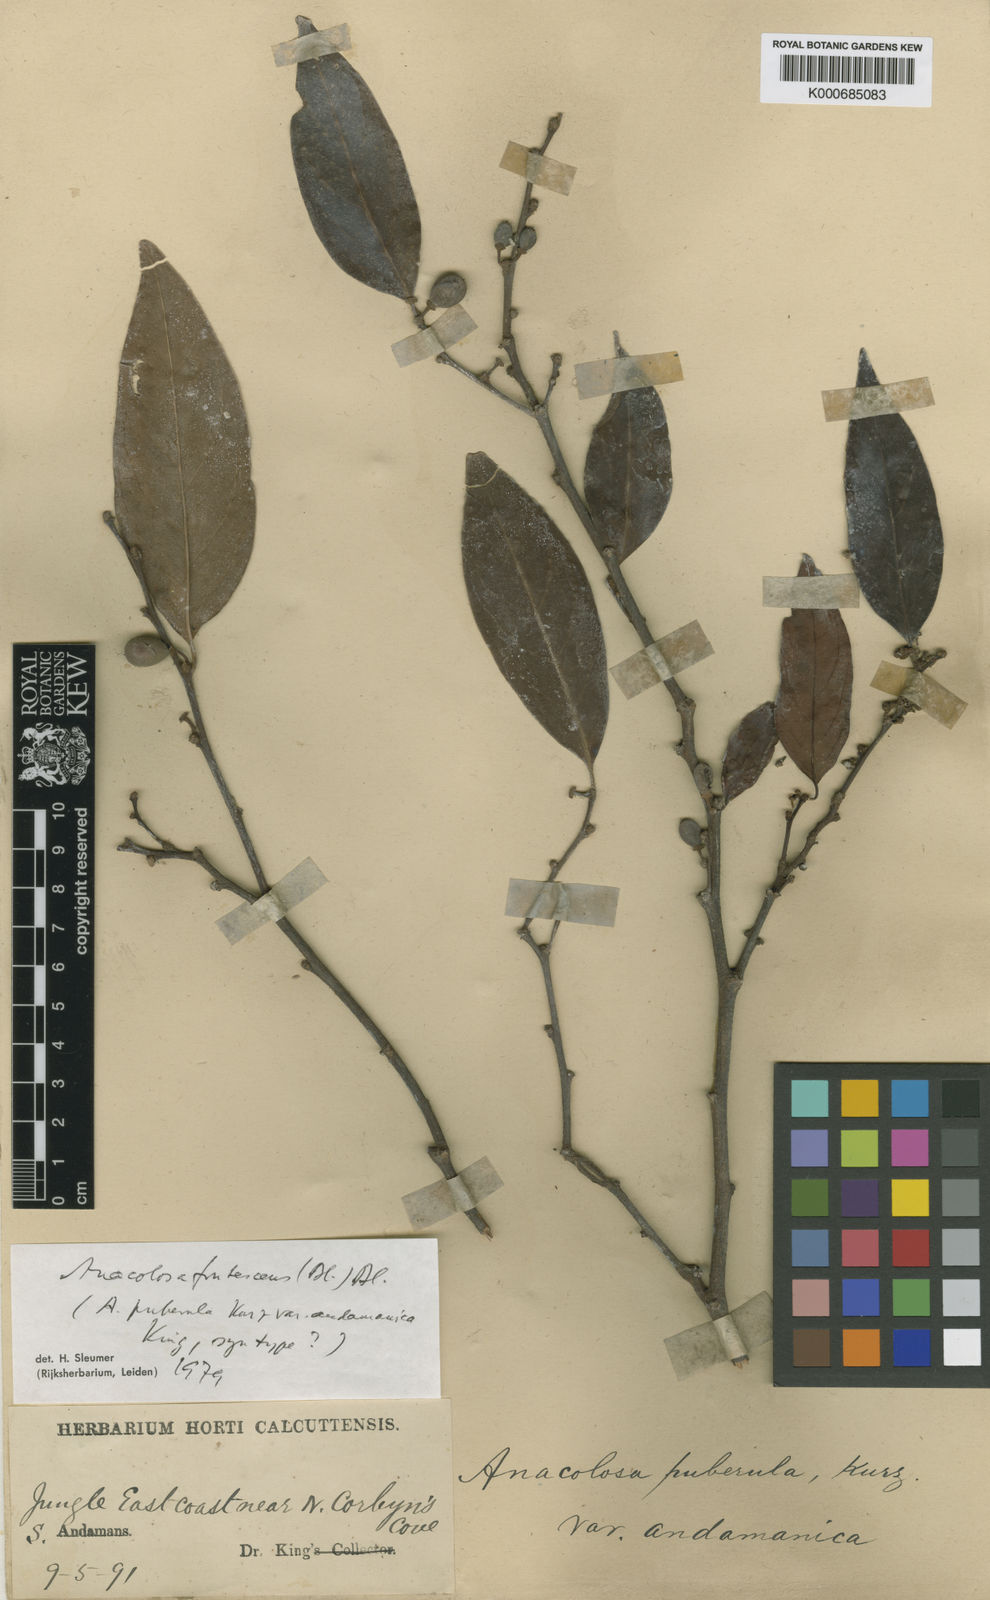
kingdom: Plantae
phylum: Tracheophyta
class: Magnoliopsida
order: Santalales
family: Aptandraceae
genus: Anacolosa
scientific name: Anacolosa frutescens
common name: Galo nut
